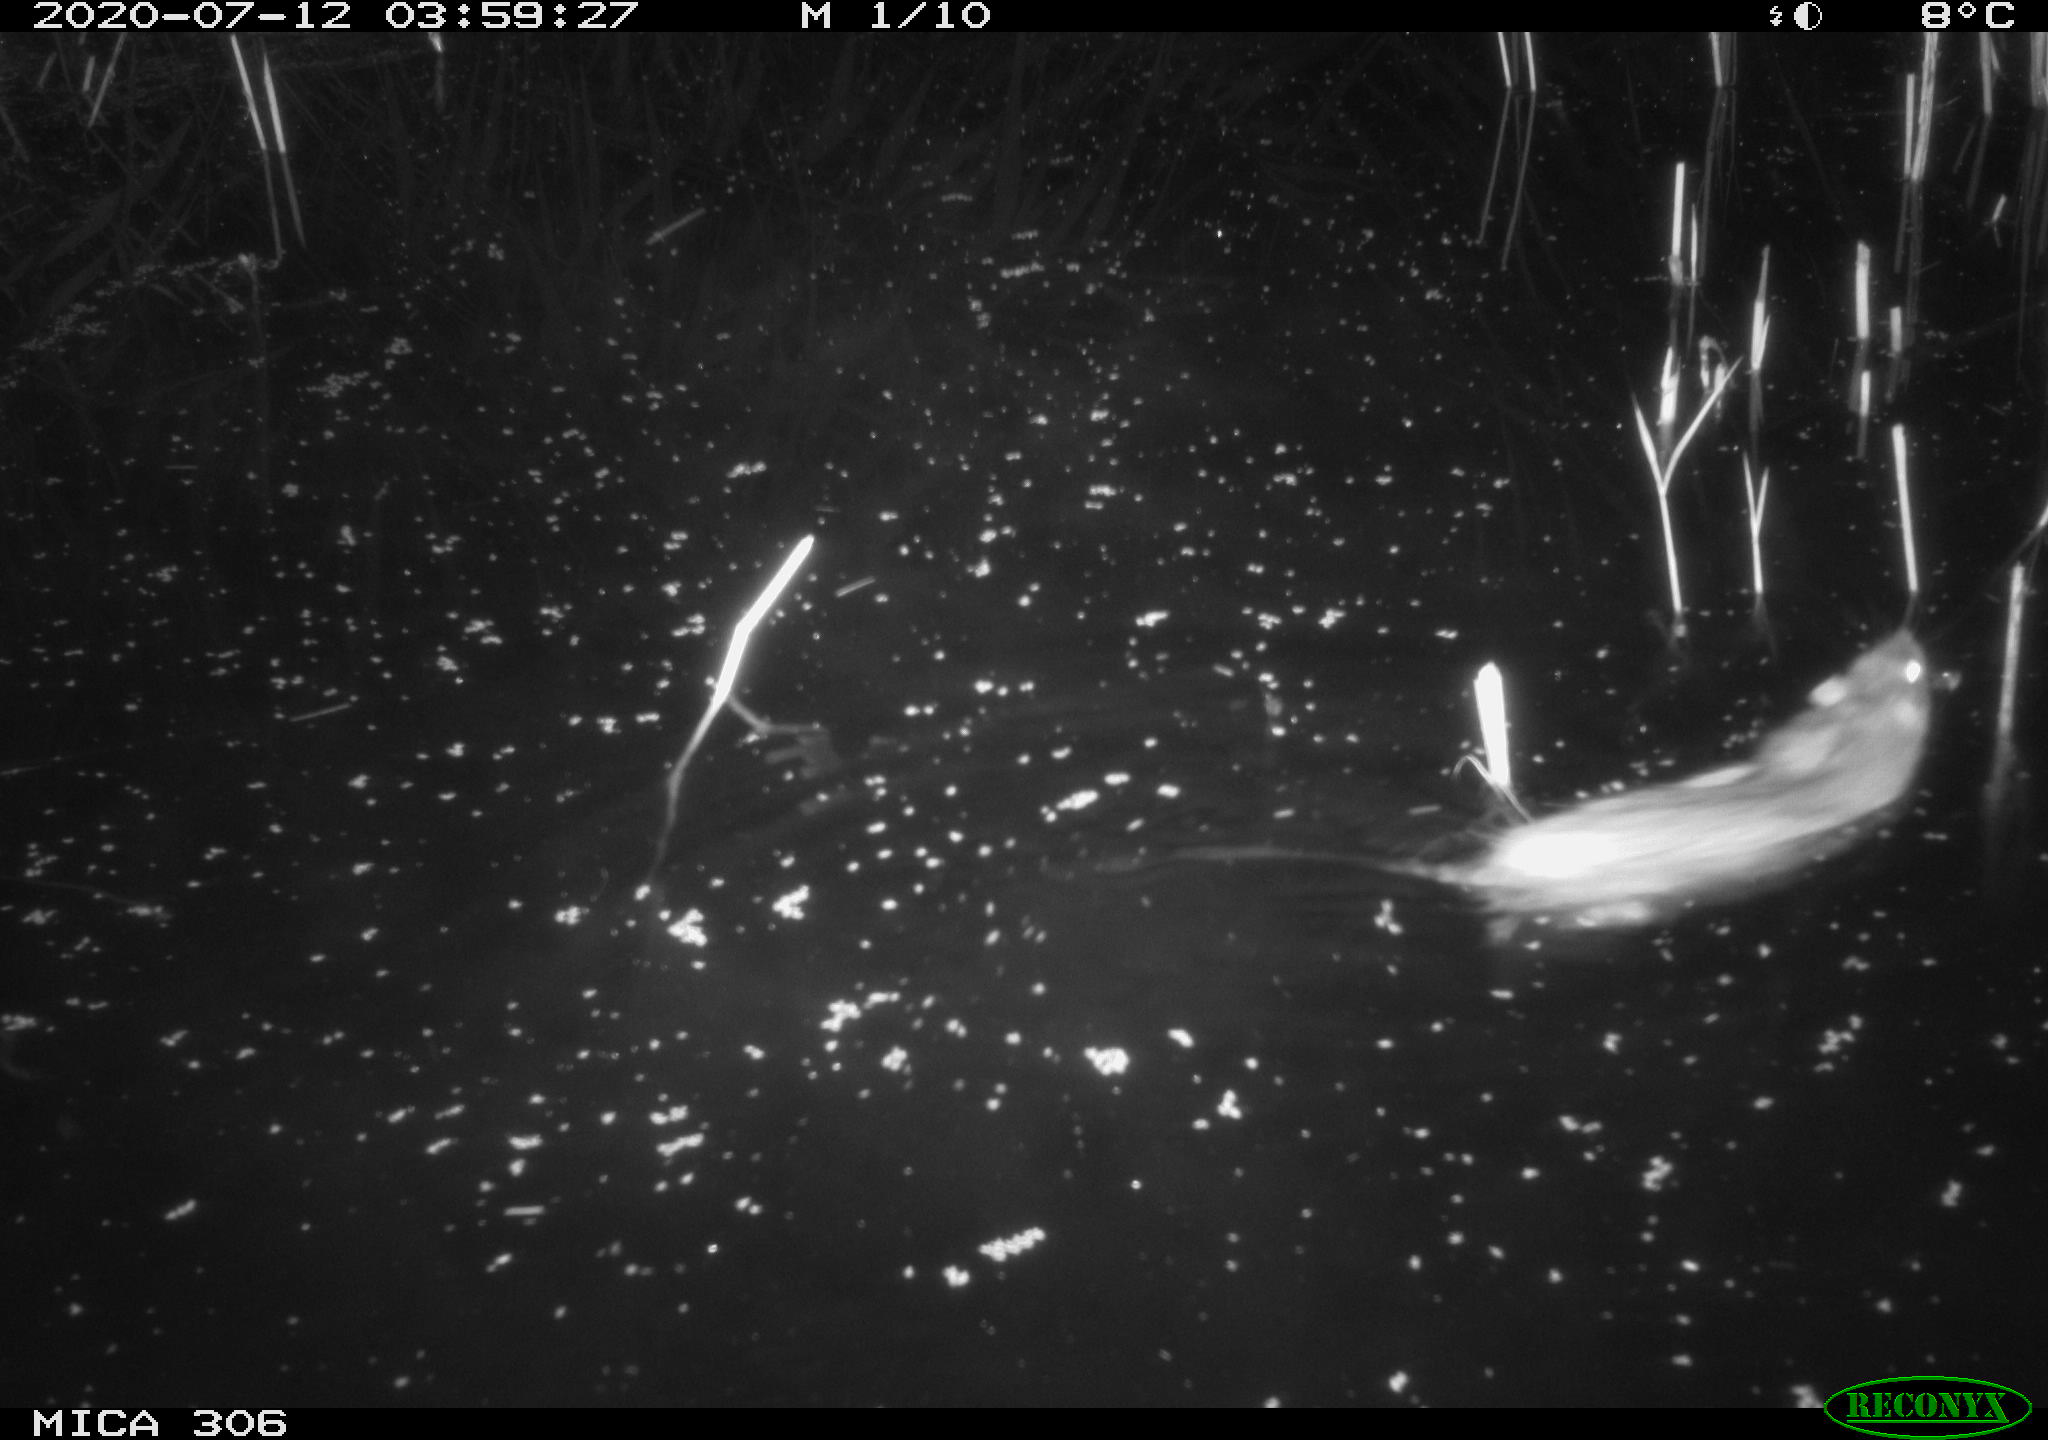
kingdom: Animalia
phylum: Chordata
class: Mammalia
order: Rodentia
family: Muridae
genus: Rattus
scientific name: Rattus norvegicus
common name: Brown rat
